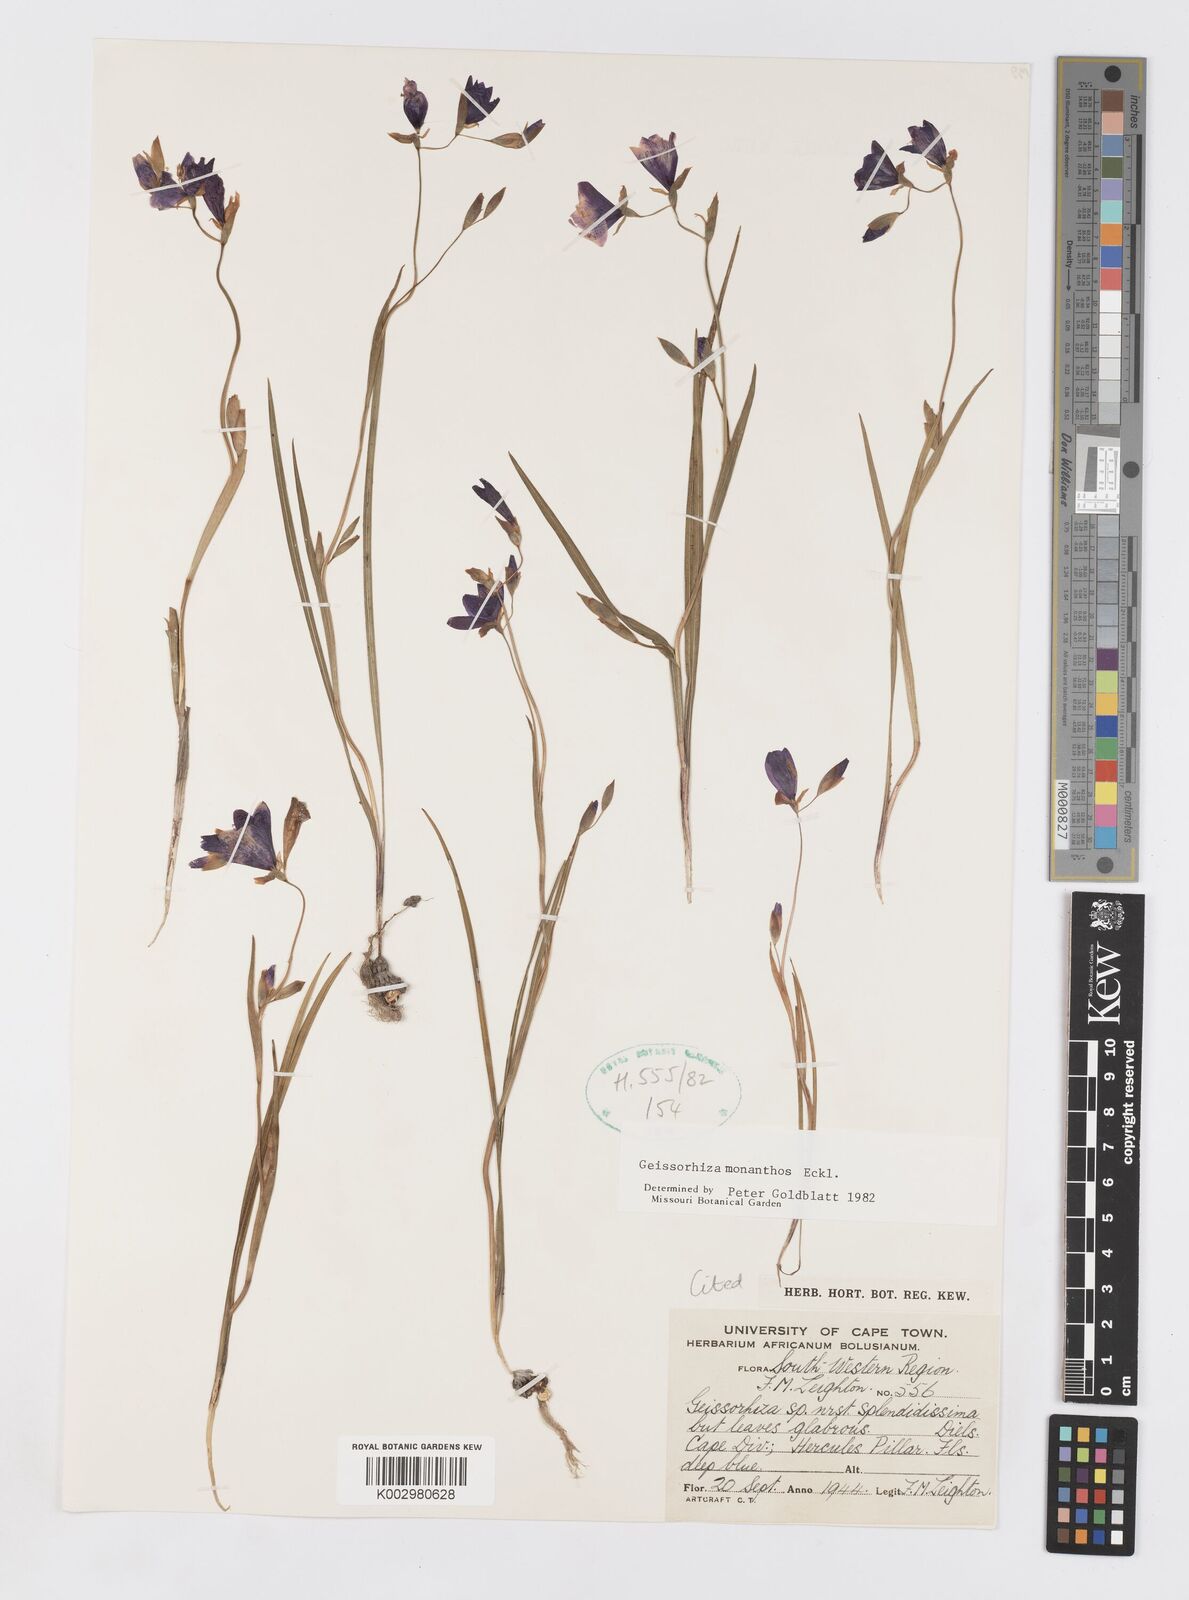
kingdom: Plantae
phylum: Tracheophyta
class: Liliopsida
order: Asparagales
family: Iridaceae
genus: Geissorhiza
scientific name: Geissorhiza monanthos
